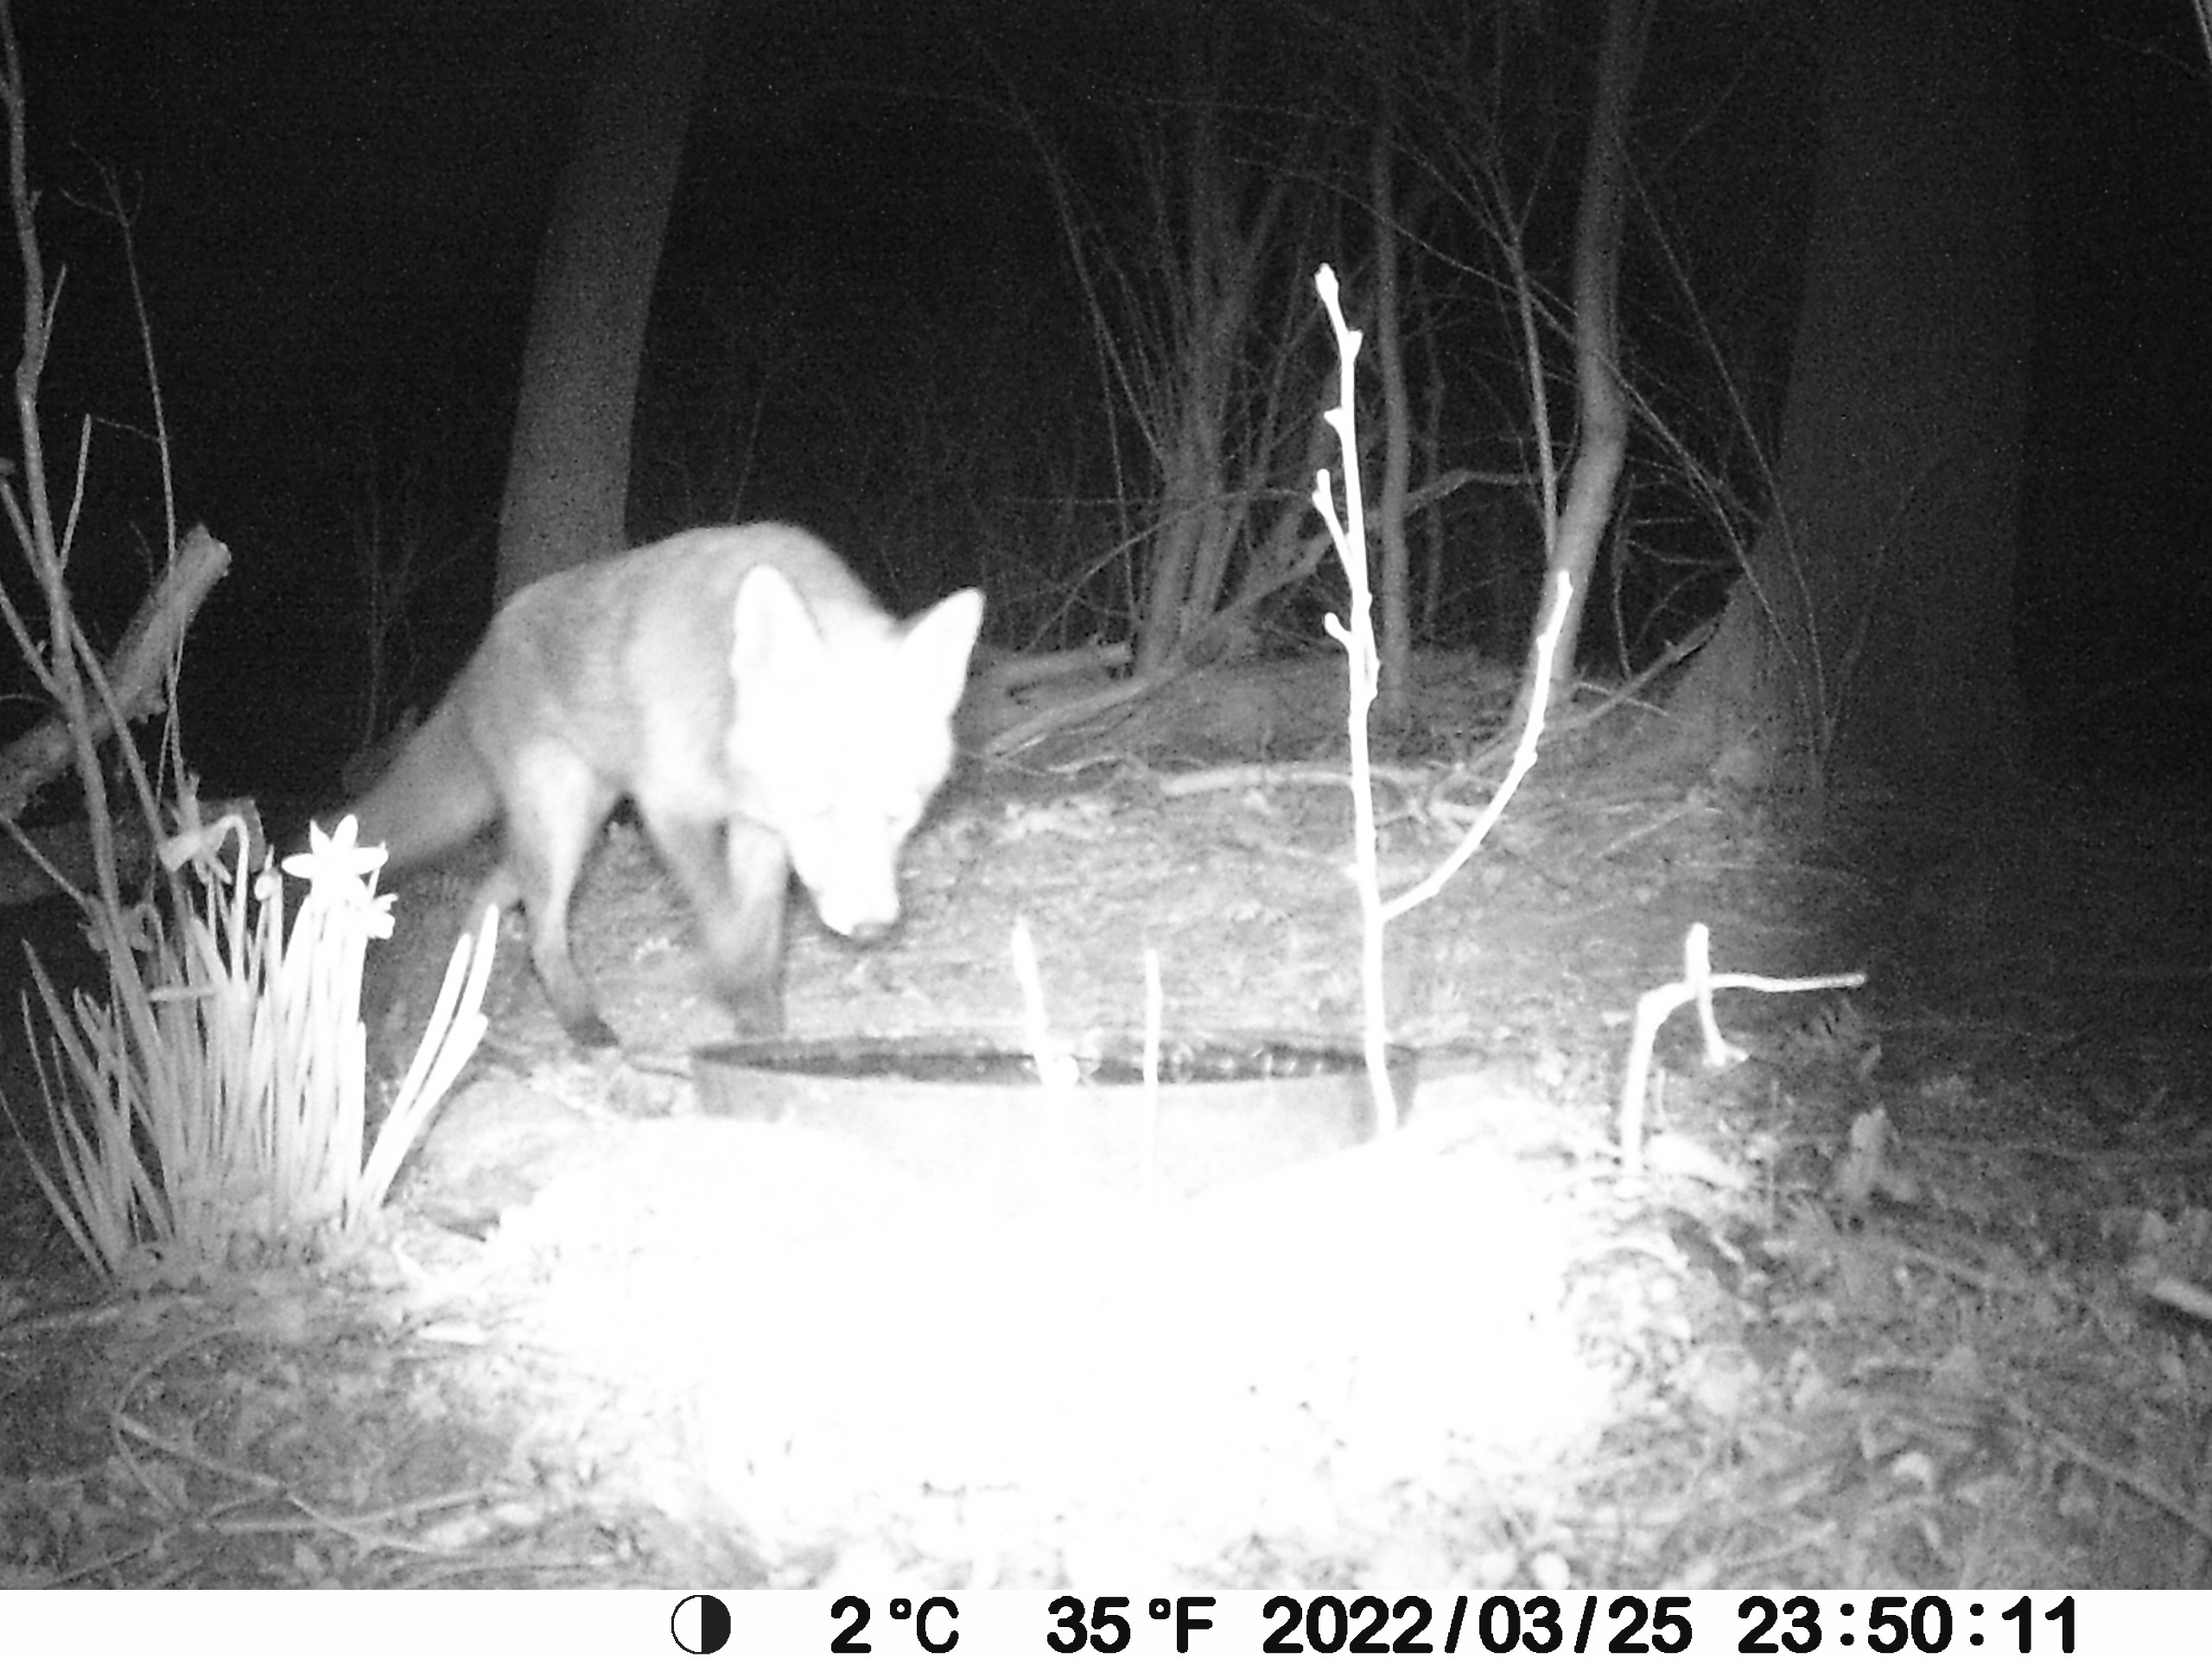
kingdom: Animalia
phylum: Chordata
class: Mammalia
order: Carnivora
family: Canidae
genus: Vulpes
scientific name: Vulpes vulpes
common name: Ræv
